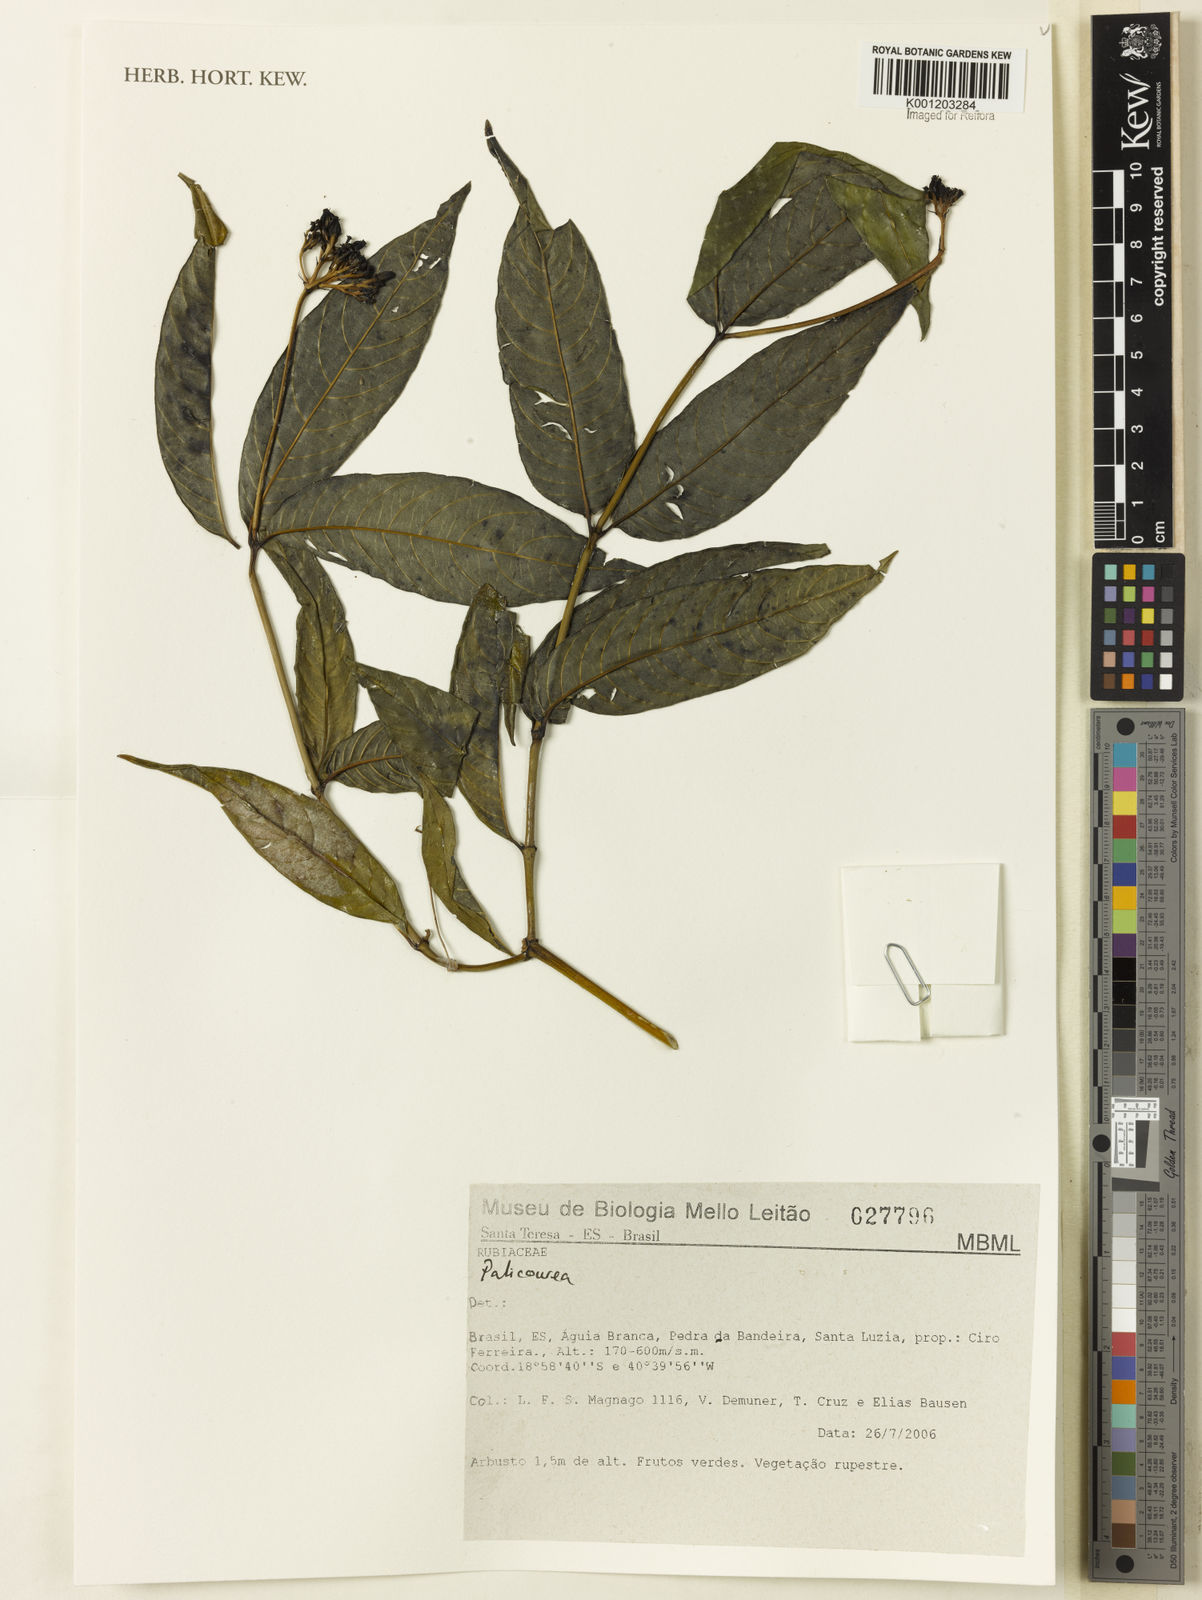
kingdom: Plantae
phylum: Tracheophyta
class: Magnoliopsida
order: Gentianales
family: Rubiaceae
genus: Palicourea
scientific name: Palicourea
